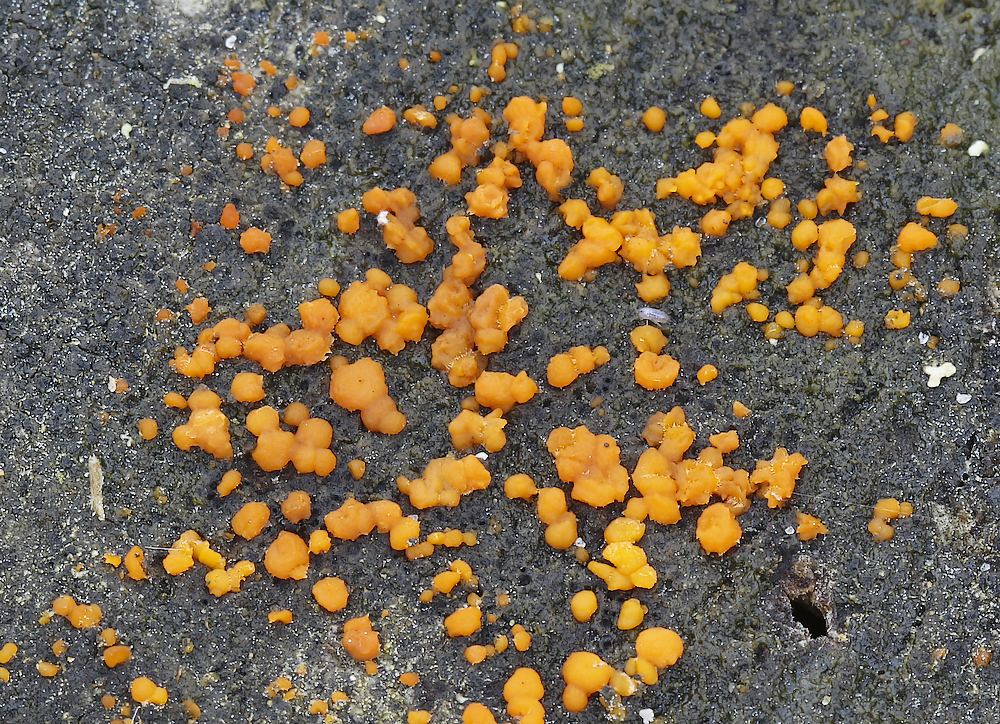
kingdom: Fungi
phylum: Basidiomycota
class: Dacrymycetes
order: Dacrymycetales
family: Dacrymycetaceae
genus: Dacrymyces
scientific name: Dacrymyces stillatus
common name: almindelig tåresvamp
